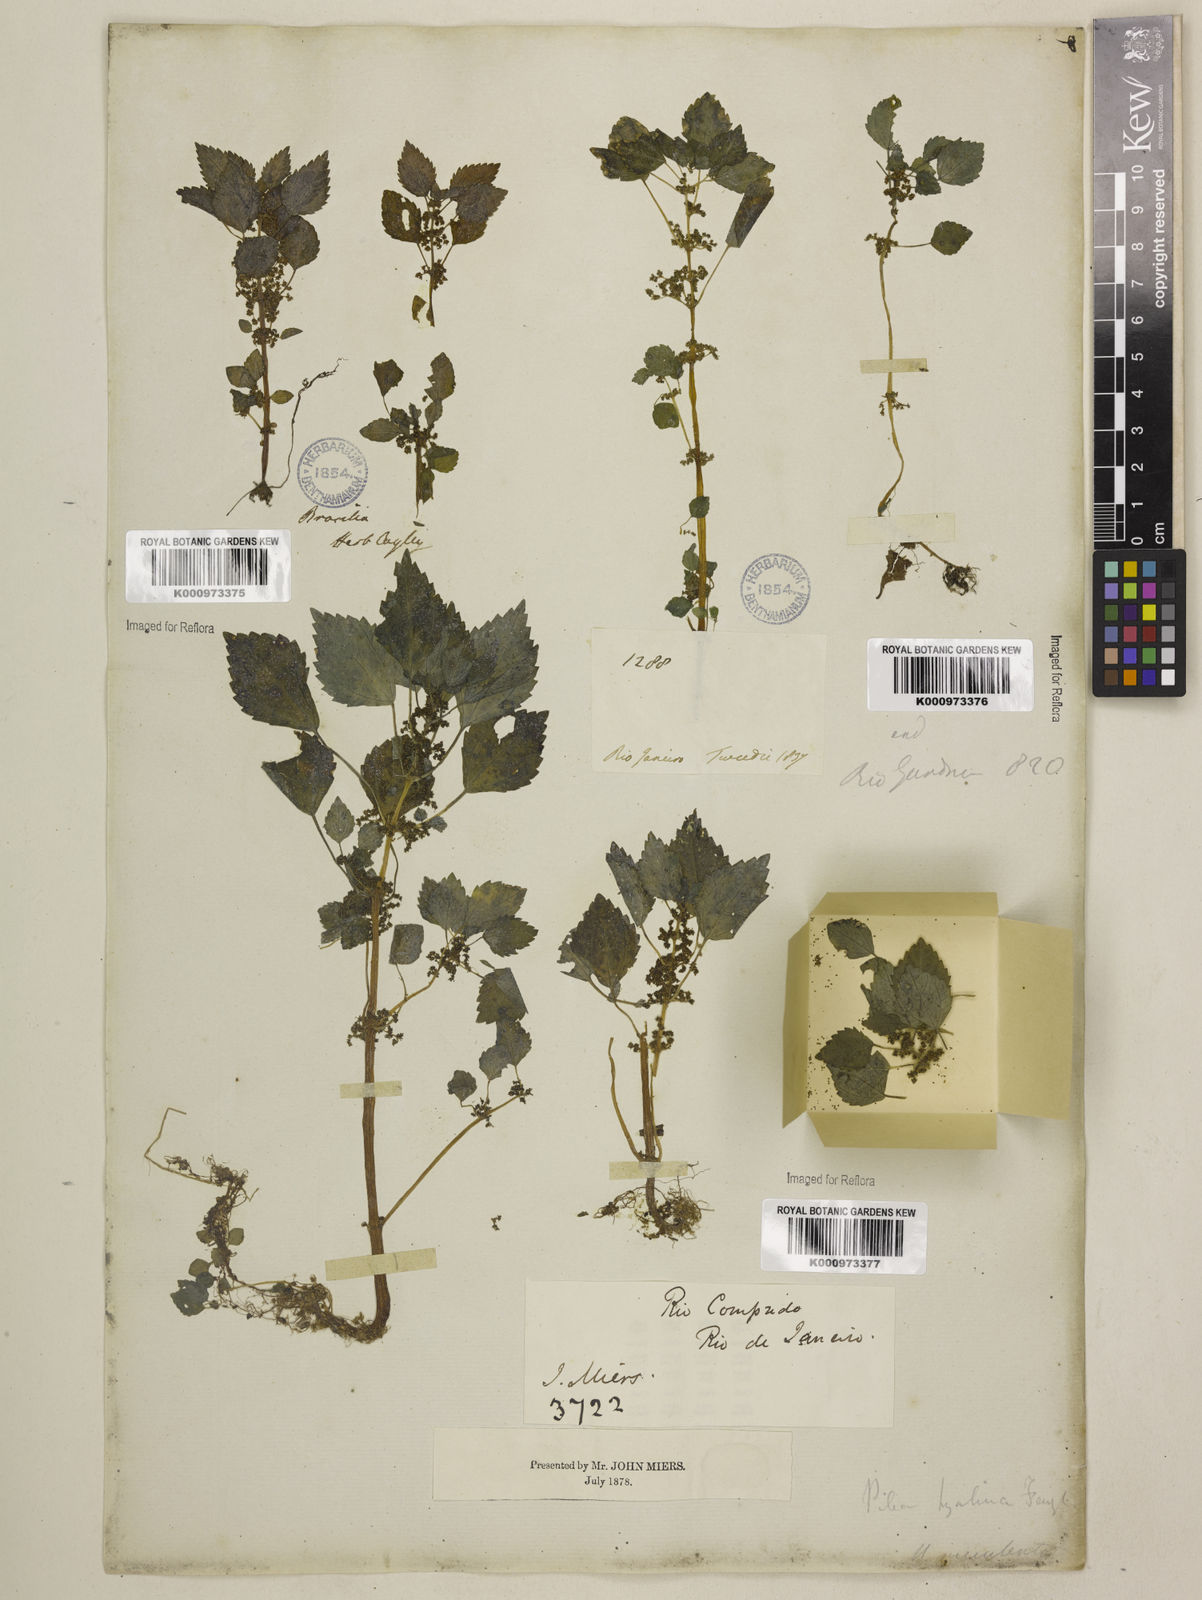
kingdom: Plantae
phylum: Tracheophyta
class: Magnoliopsida
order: Rosales
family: Urticaceae
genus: Pilea
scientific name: Pilea hyalina
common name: Virdrillo
